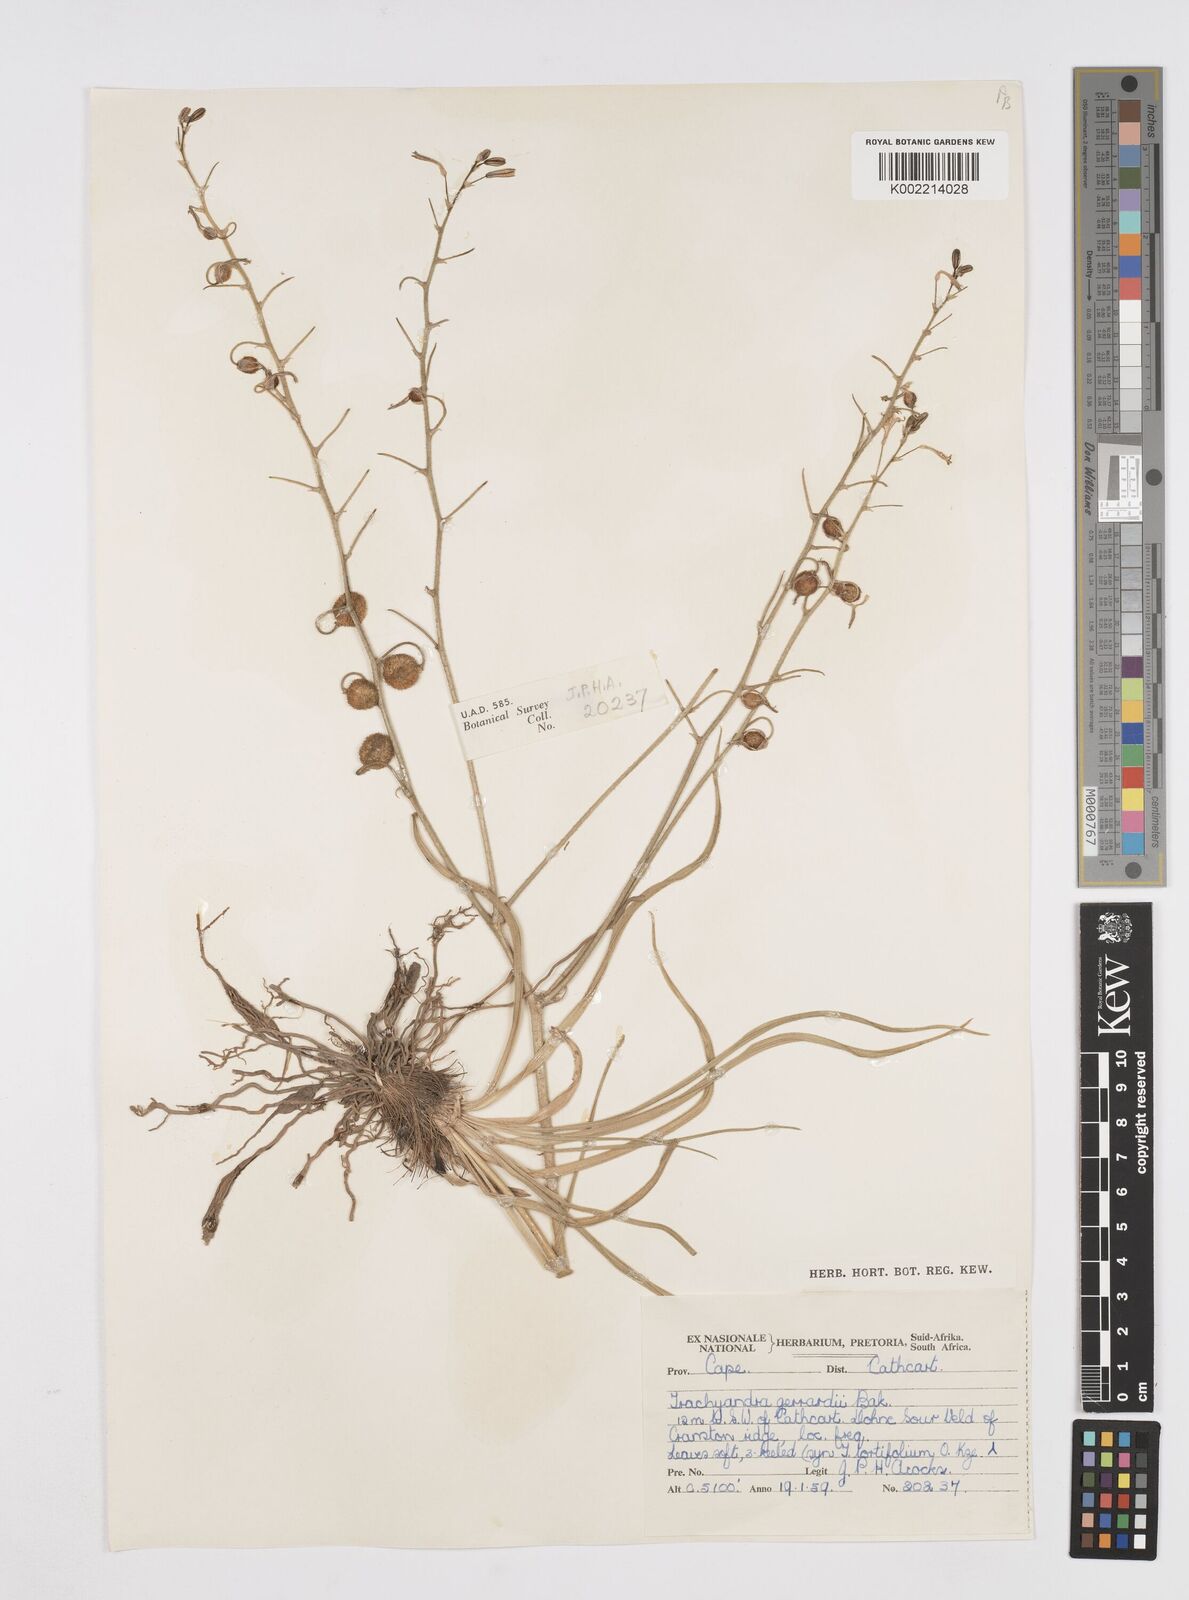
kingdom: Plantae
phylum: Tracheophyta
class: Liliopsida
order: Asparagales
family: Asphodelaceae
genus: Trachyandra
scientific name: Trachyandra gerrardii
